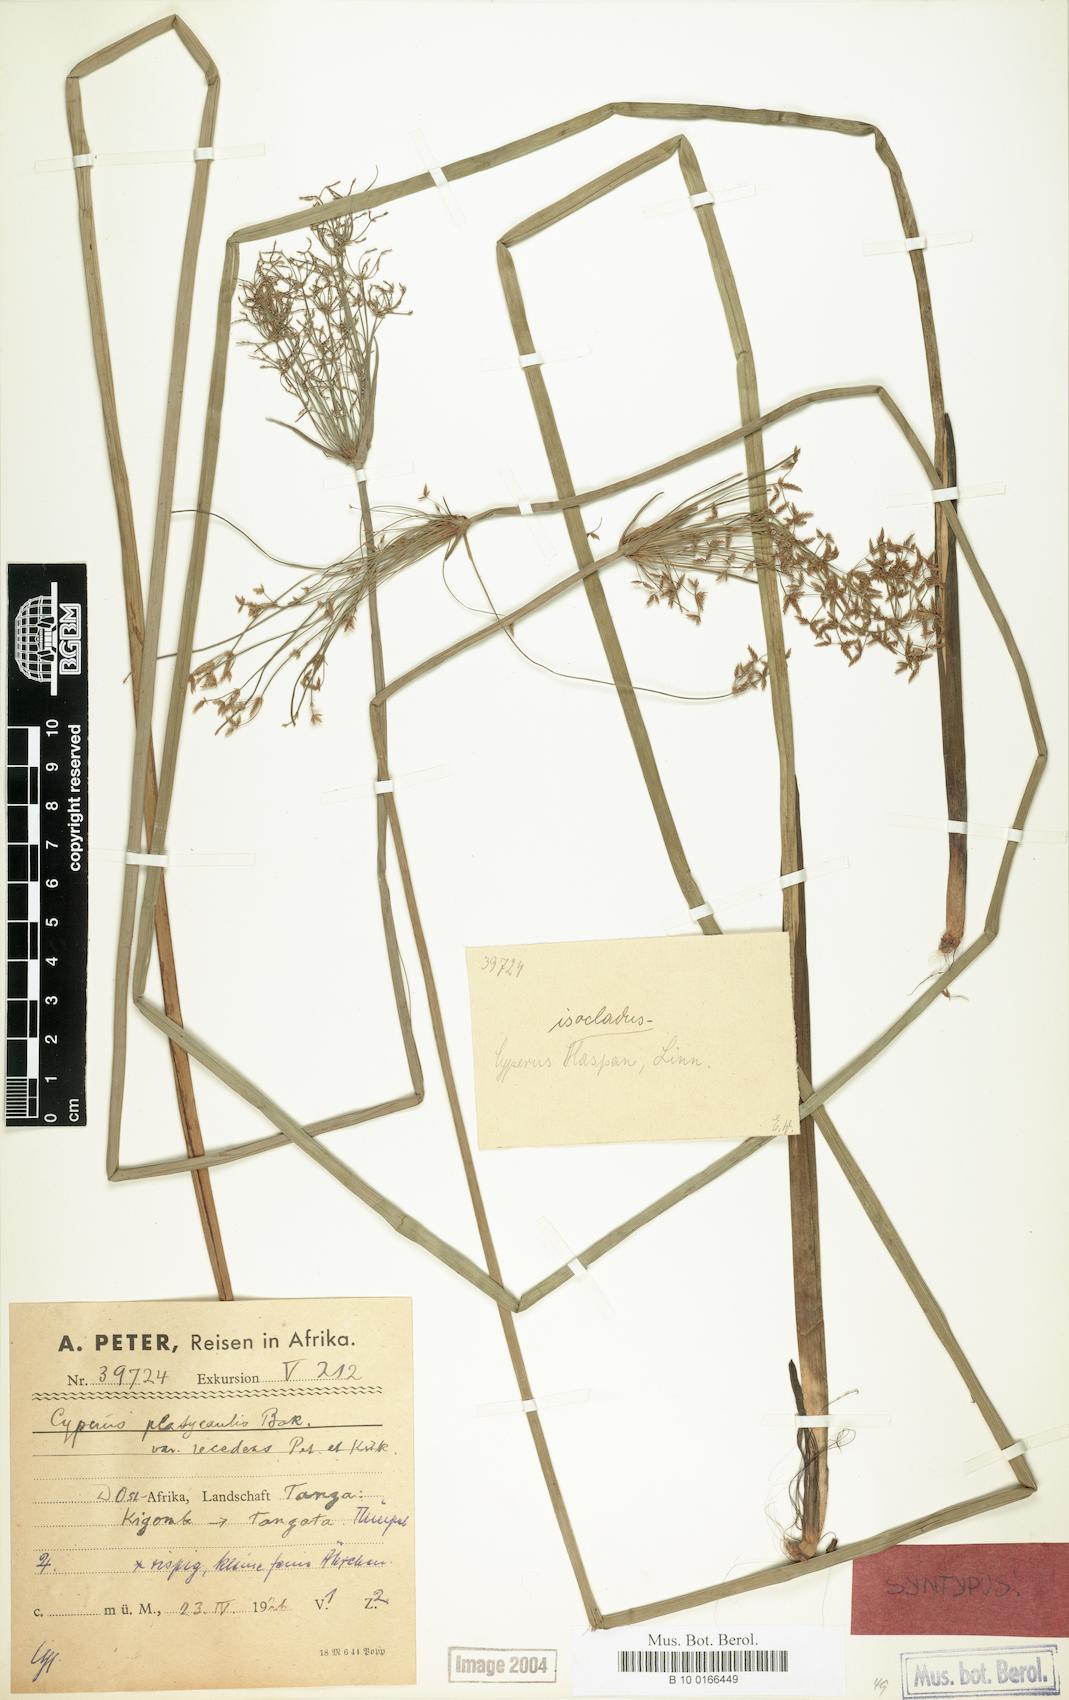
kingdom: Plantae
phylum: Tracheophyta
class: Liliopsida
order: Poales
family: Cyperaceae
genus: Cyperus
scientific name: Cyperus denudatus
